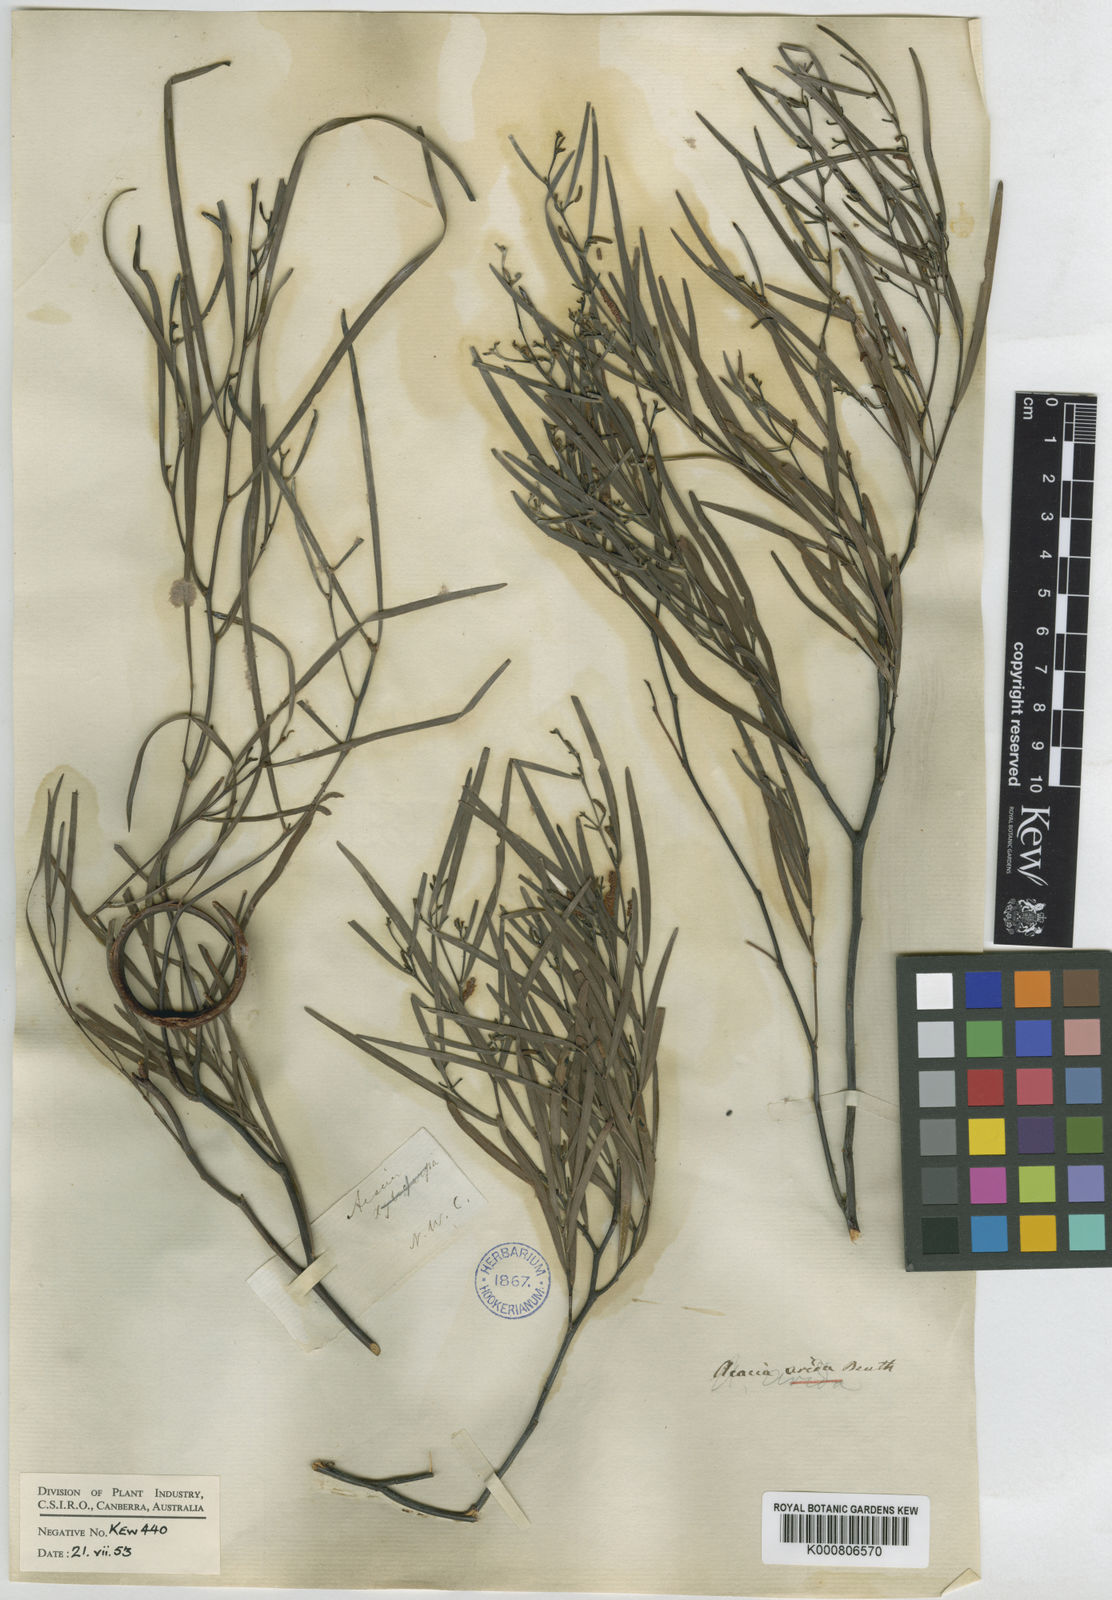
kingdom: Plantae
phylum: Tracheophyta
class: Magnoliopsida
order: Fabales
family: Fabaceae
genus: Acacia
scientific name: Acacia arida
